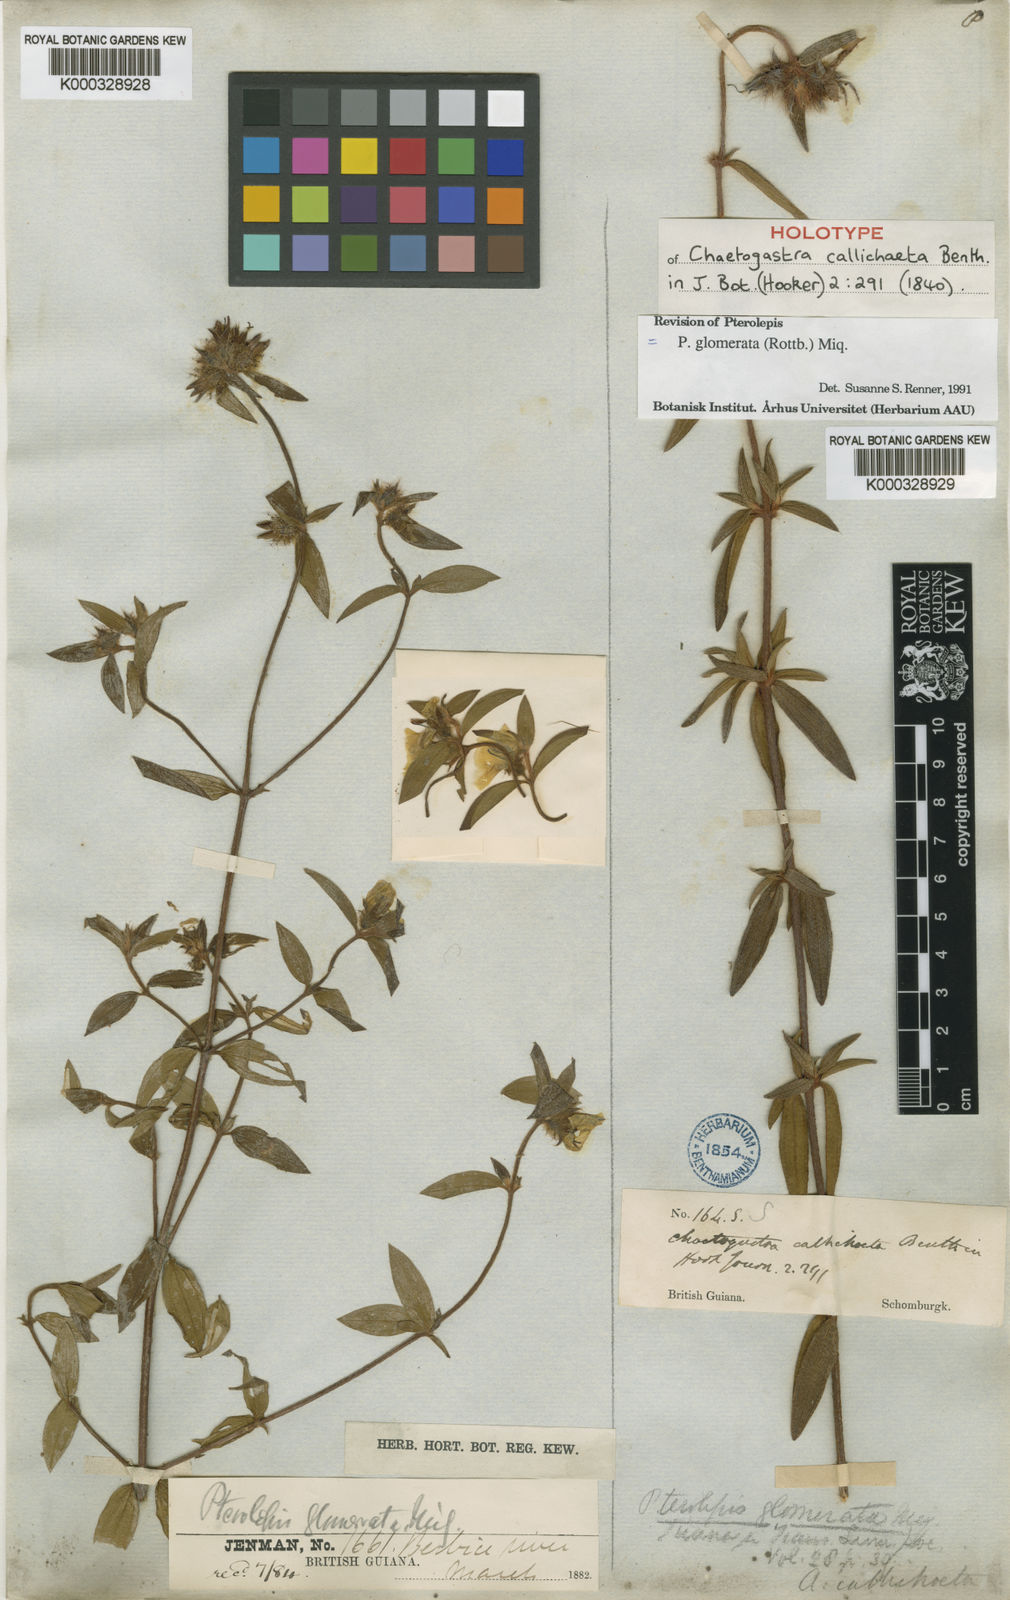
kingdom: Plantae
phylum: Tracheophyta
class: Magnoliopsida
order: Myrtales
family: Melastomataceae
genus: Pterolepis
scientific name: Pterolepis glomerata
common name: False meadowbeauty
